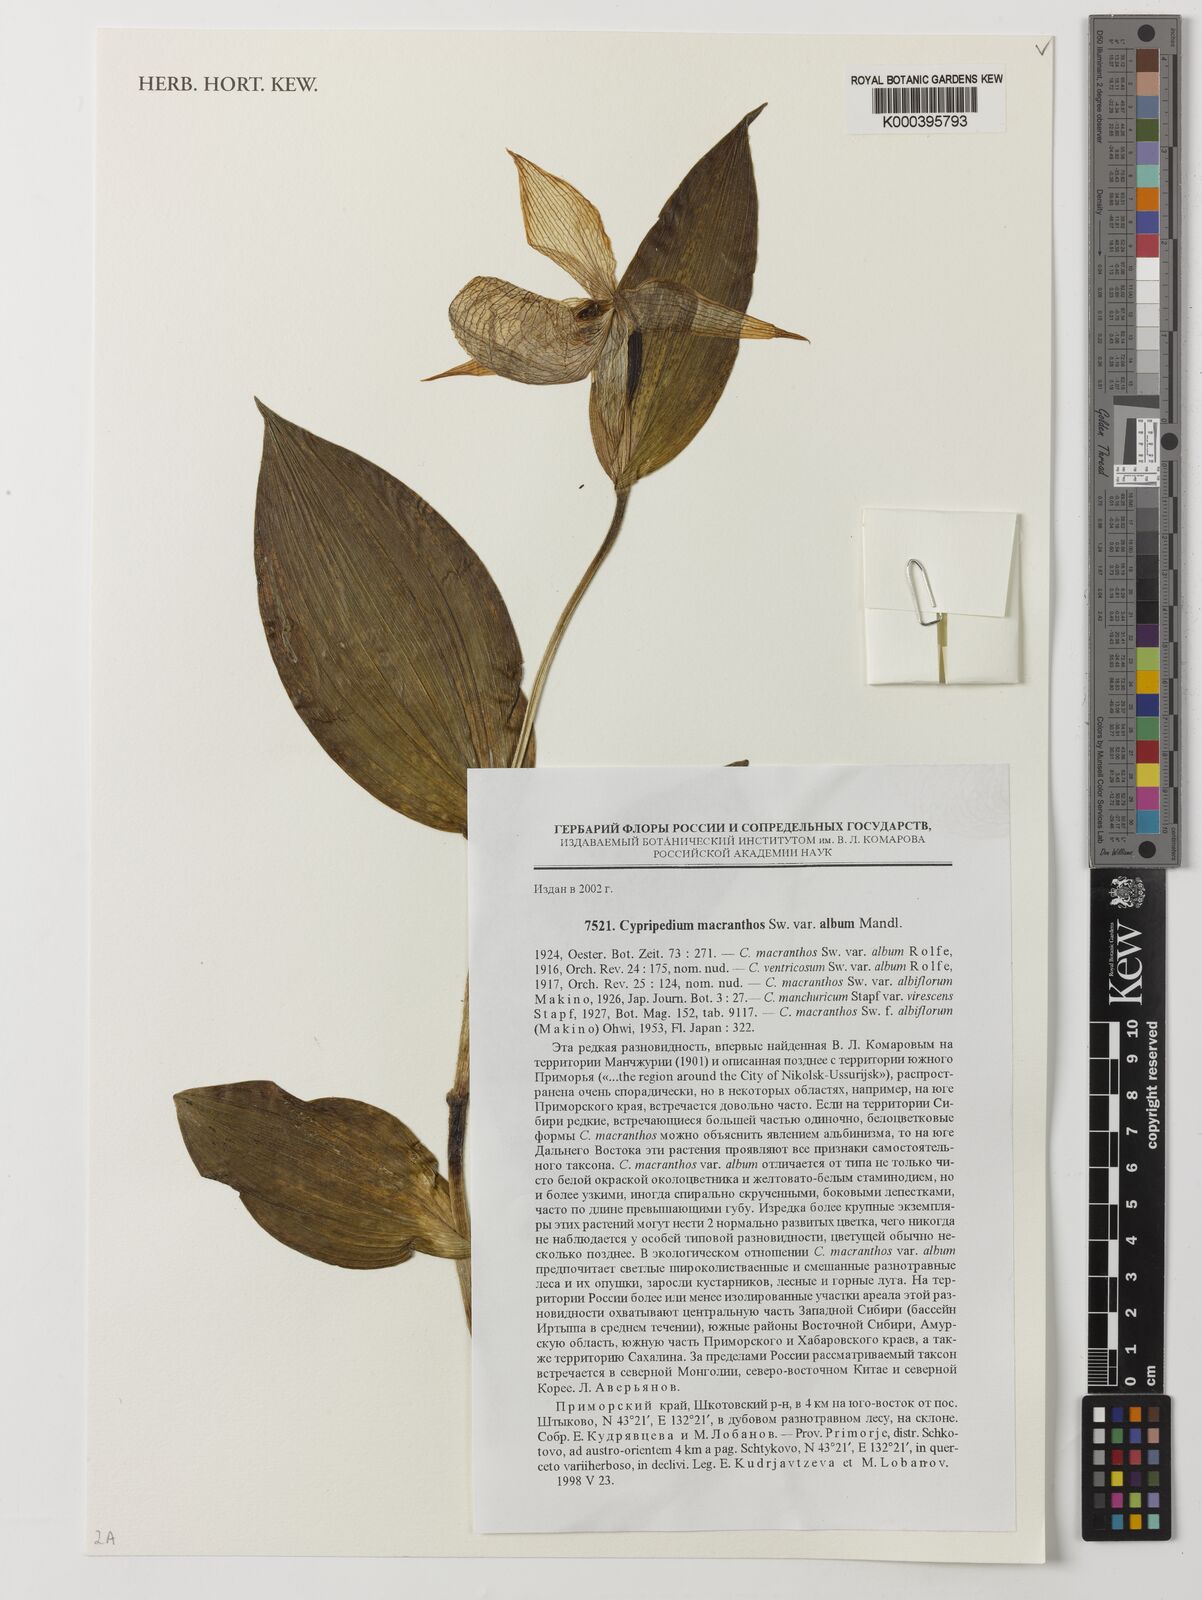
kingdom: Plantae
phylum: Tracheophyta
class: Liliopsida
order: Asparagales
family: Orchidaceae
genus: Cypripedium
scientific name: Cypripedium macranthos
